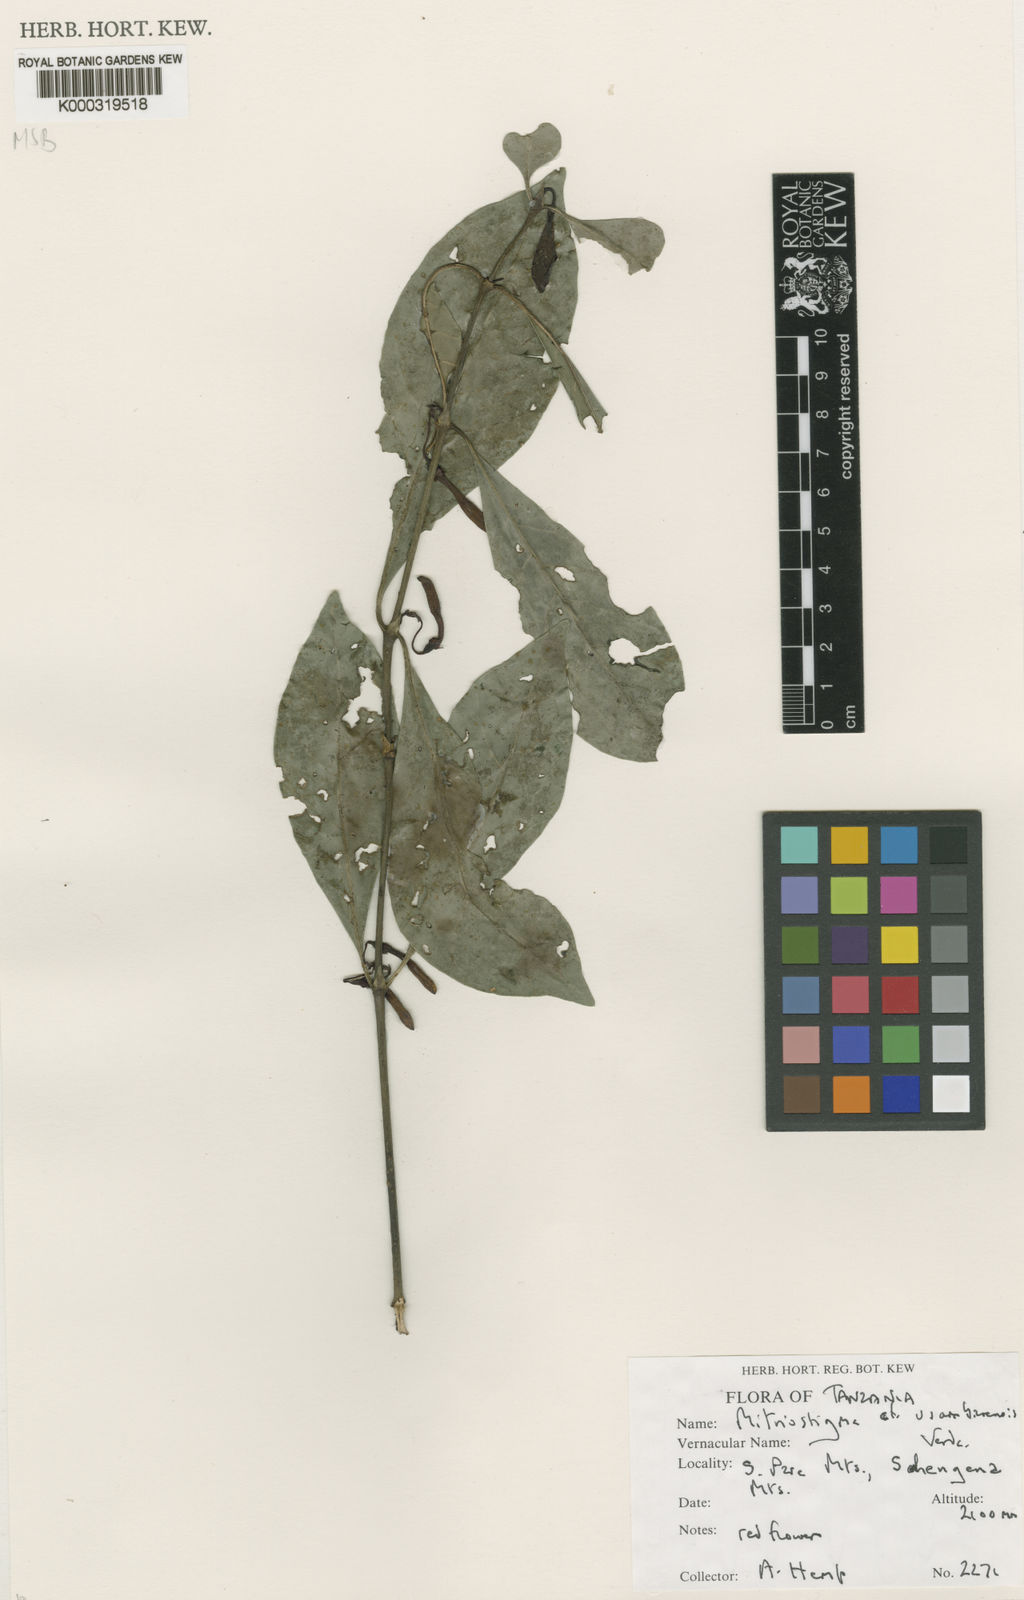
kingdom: Plantae
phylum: Tracheophyta
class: Magnoliopsida
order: Gentianales
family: Rubiaceae
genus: Mitriostigma
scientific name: Mitriostigma usambarense
